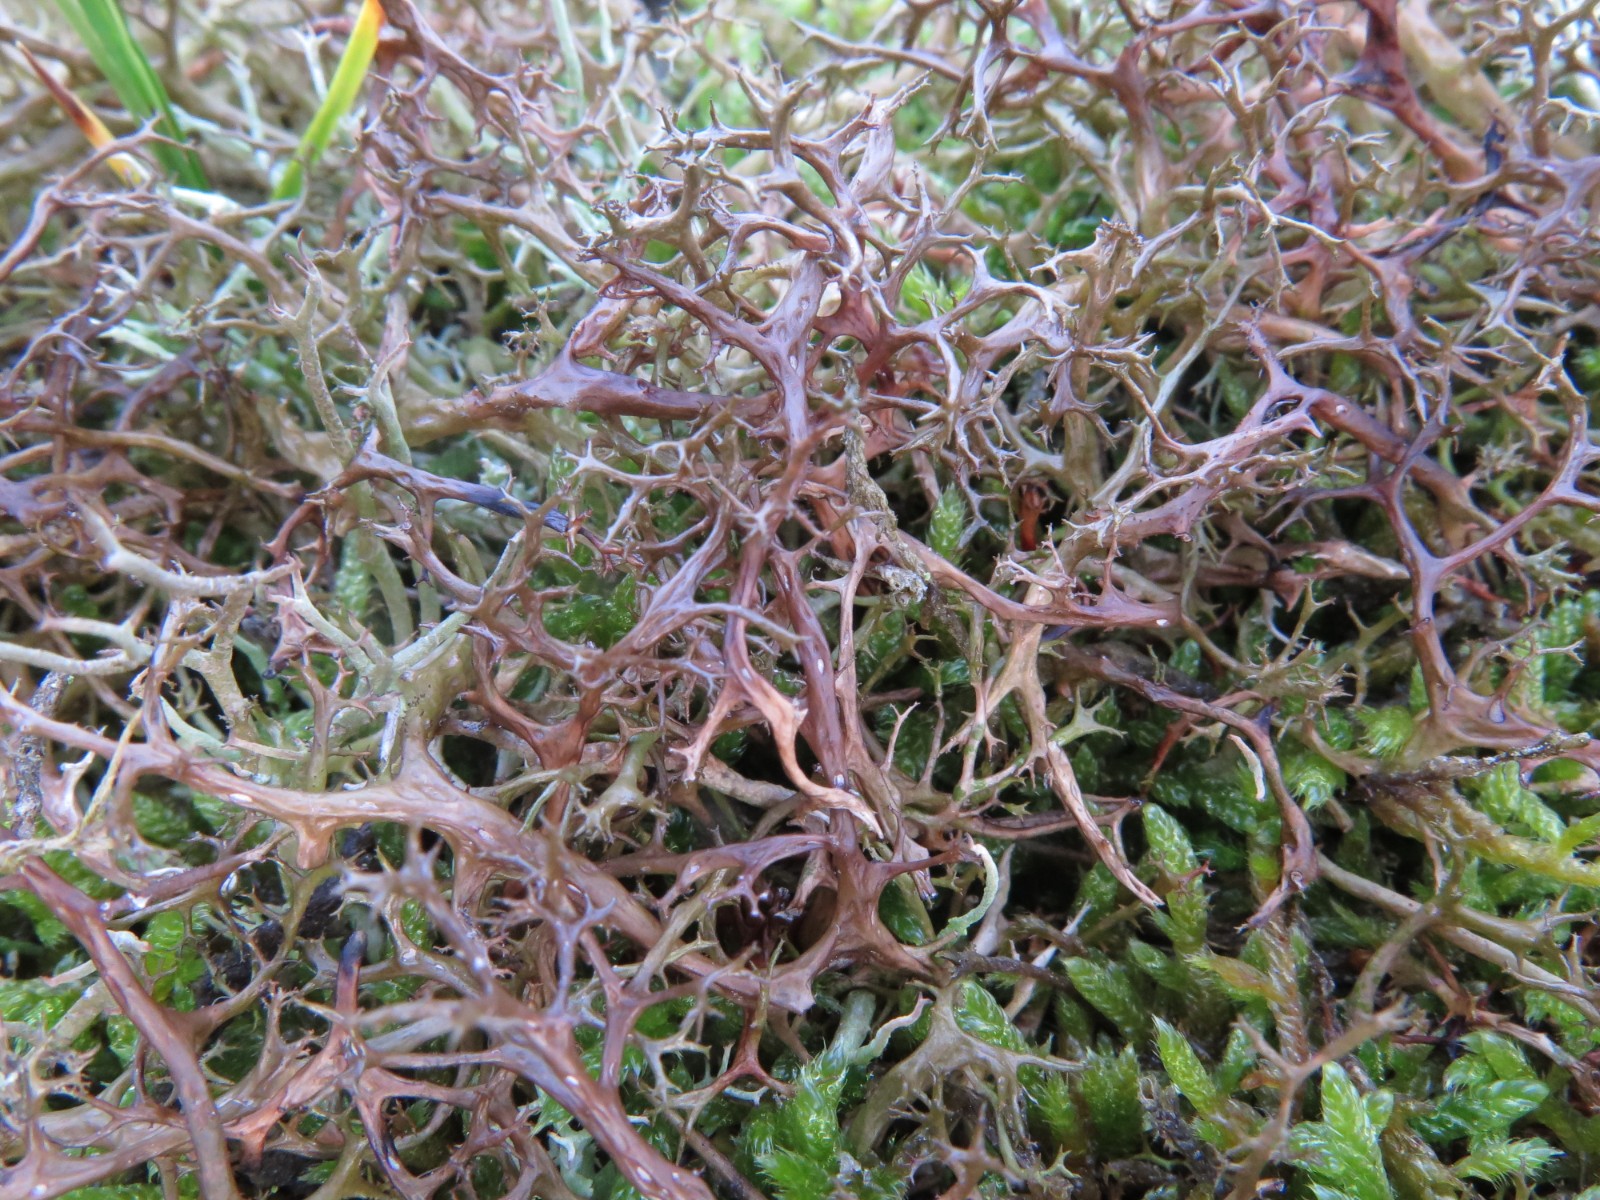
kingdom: Fungi
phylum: Ascomycota
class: Lecanoromycetes
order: Lecanorales
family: Parmeliaceae
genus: Cetraria
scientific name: Cetraria aculeata
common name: grubet tjørnelav
